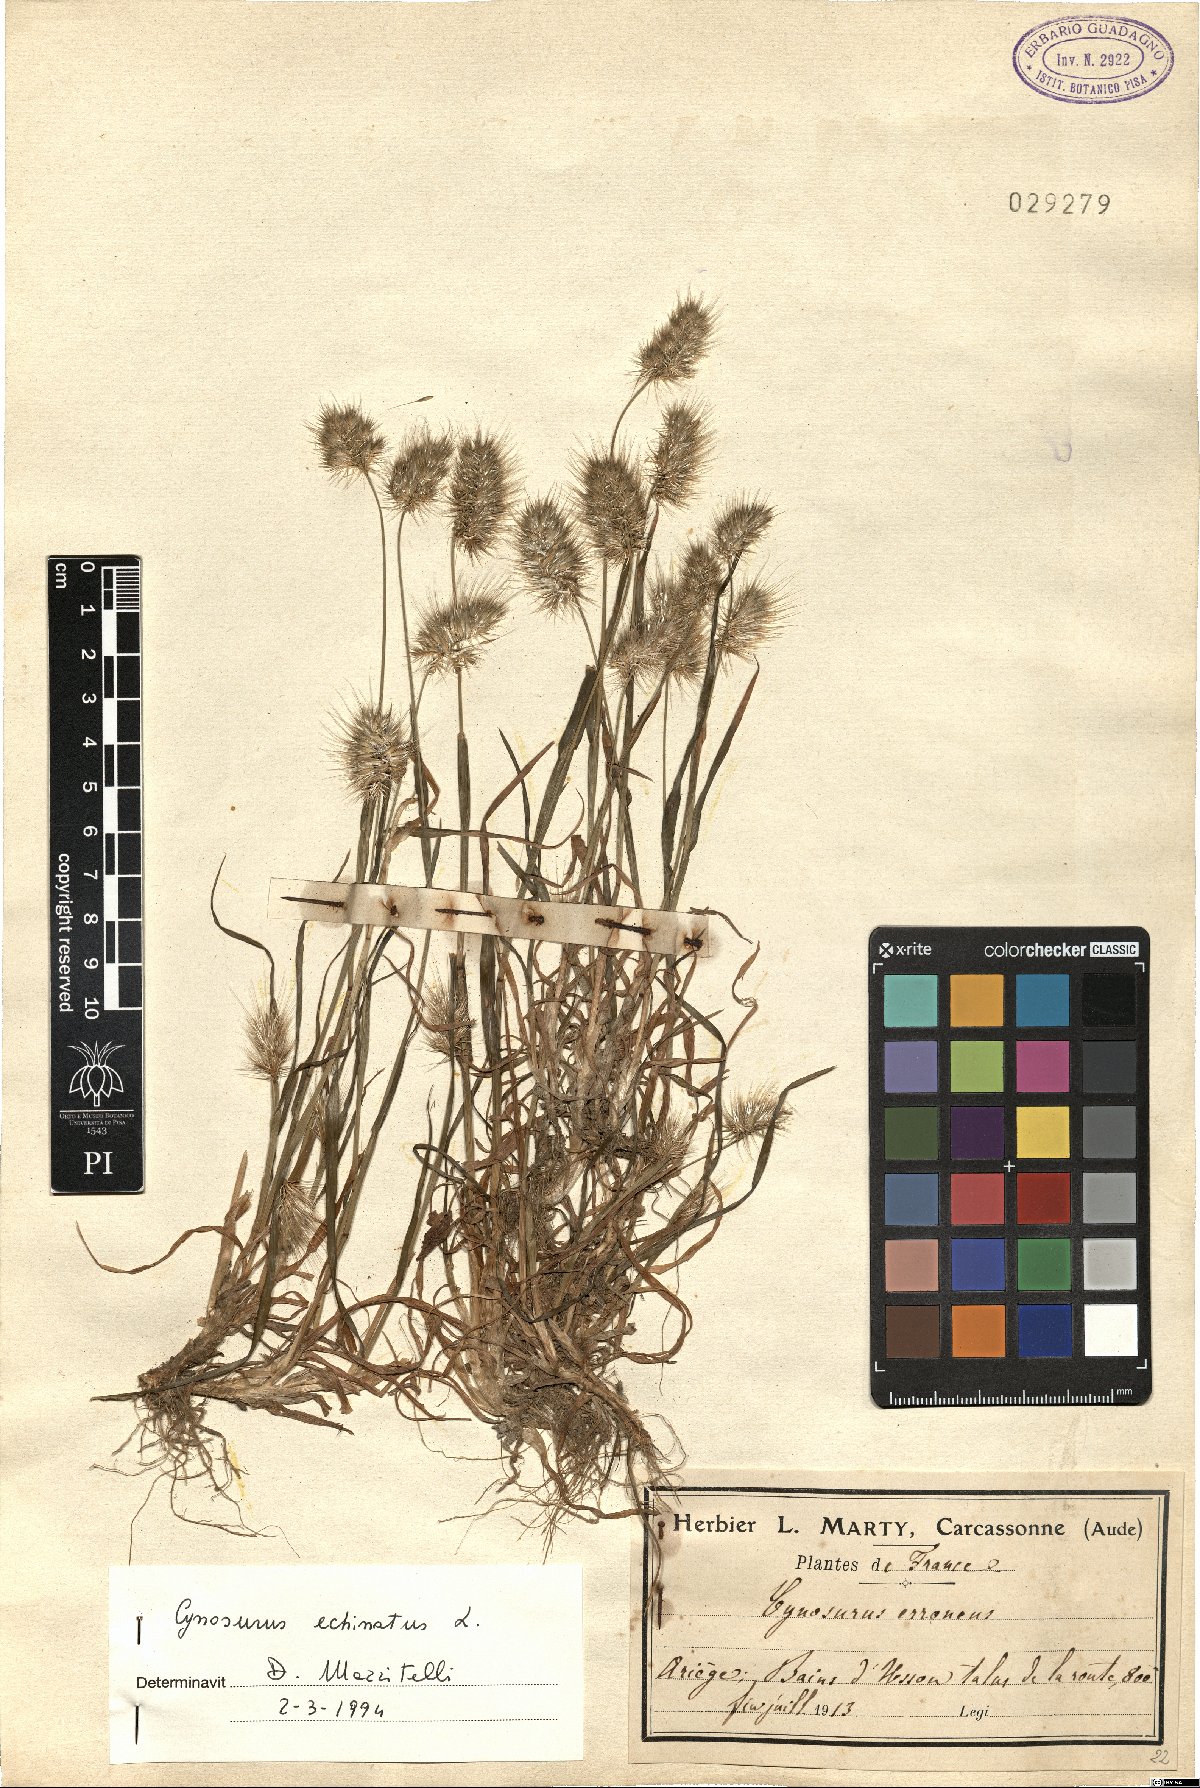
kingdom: Plantae
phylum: Tracheophyta
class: Liliopsida
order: Poales
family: Poaceae
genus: Cynosurus
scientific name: Cynosurus echinatus
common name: Rough dog's-tail
